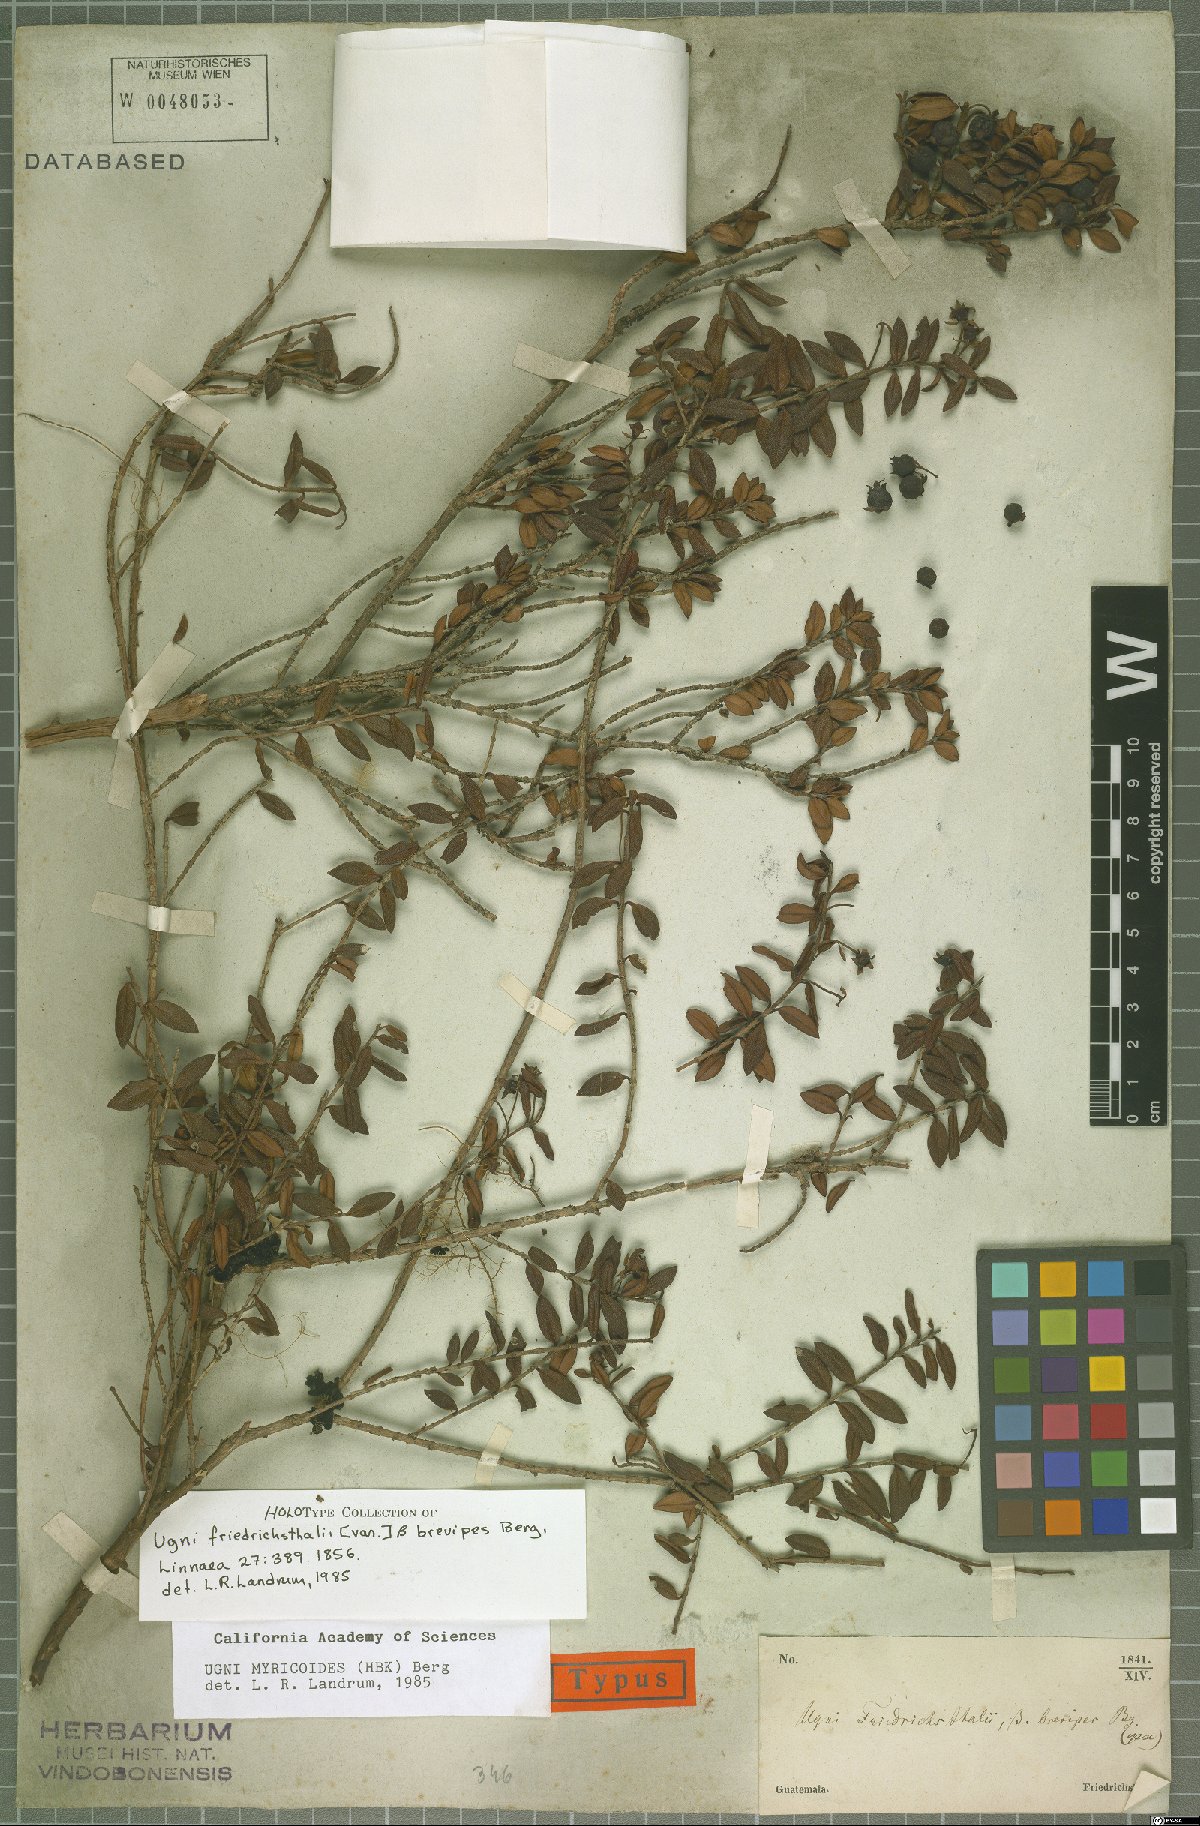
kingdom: Plantae
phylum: Tracheophyta
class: Magnoliopsida
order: Myrtales
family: Myrtaceae
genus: Ugni
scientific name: Ugni myricoides
